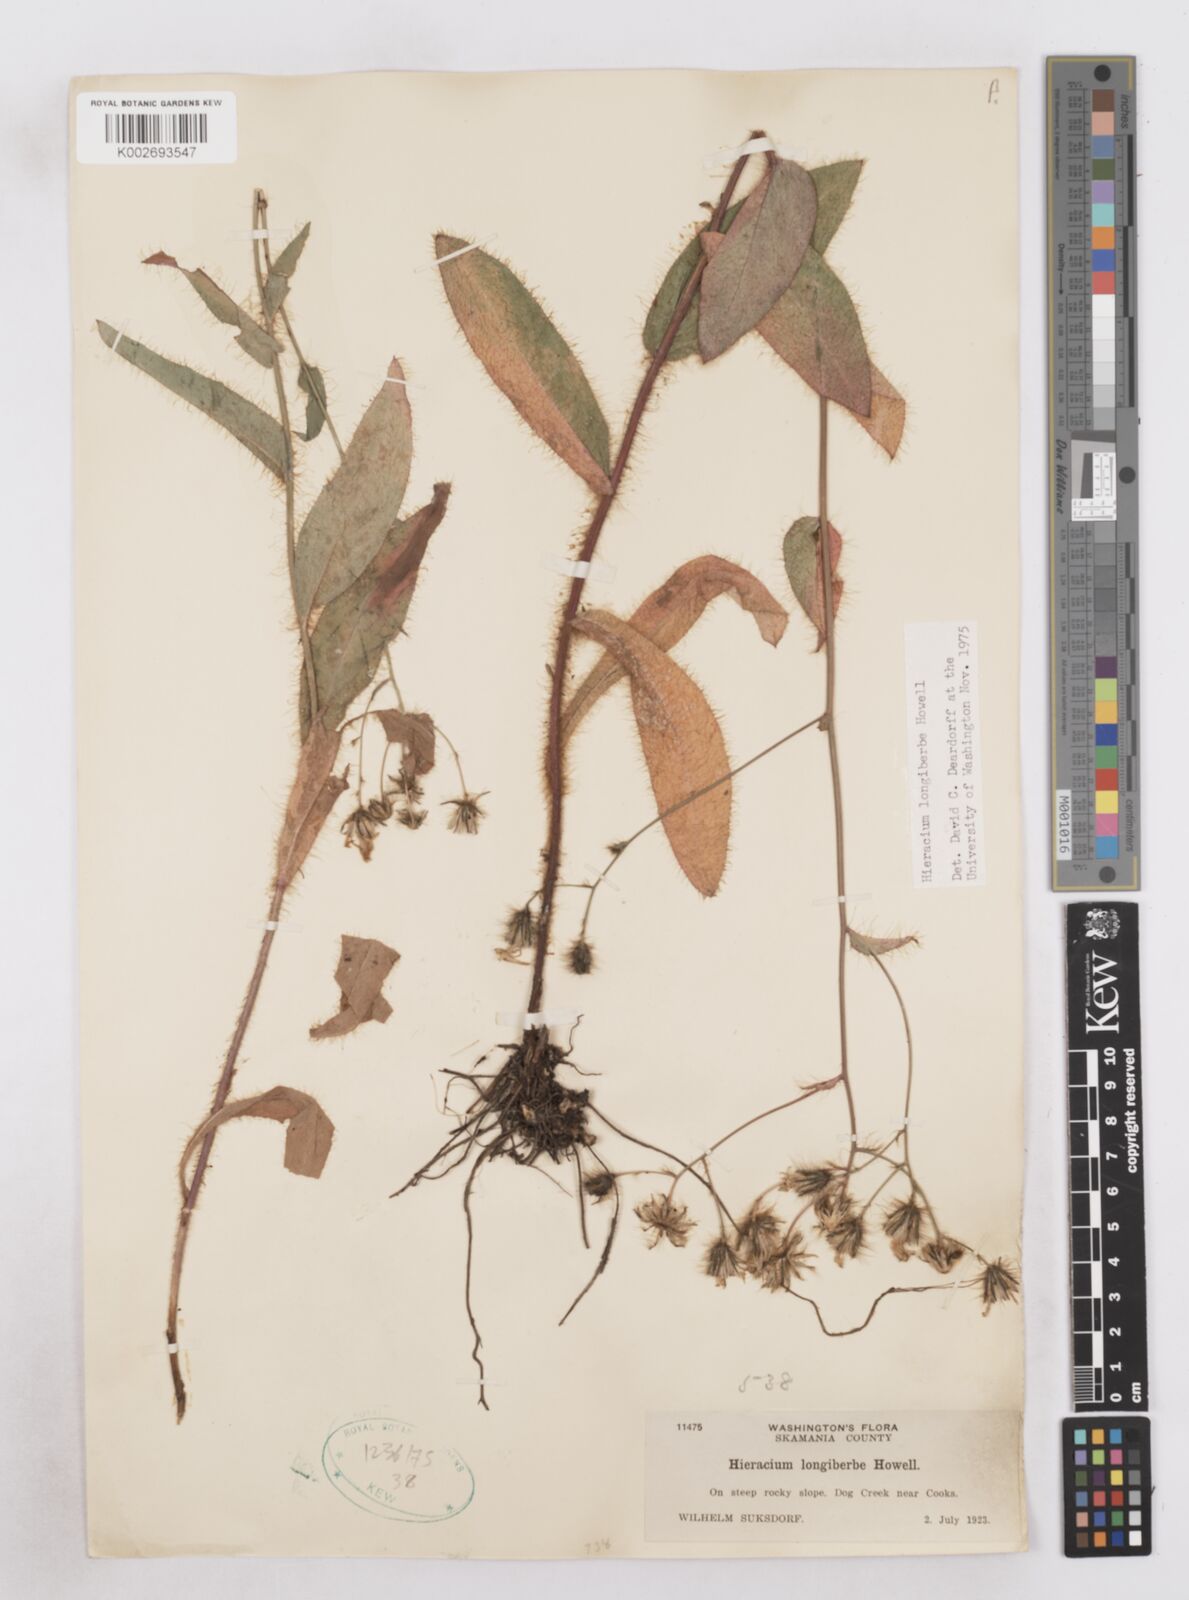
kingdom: Plantae
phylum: Tracheophyta
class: Magnoliopsida
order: Asterales
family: Asteraceae
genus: Hieracium
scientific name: Hieracium longiberbe
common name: Long-bearded hawkweed
